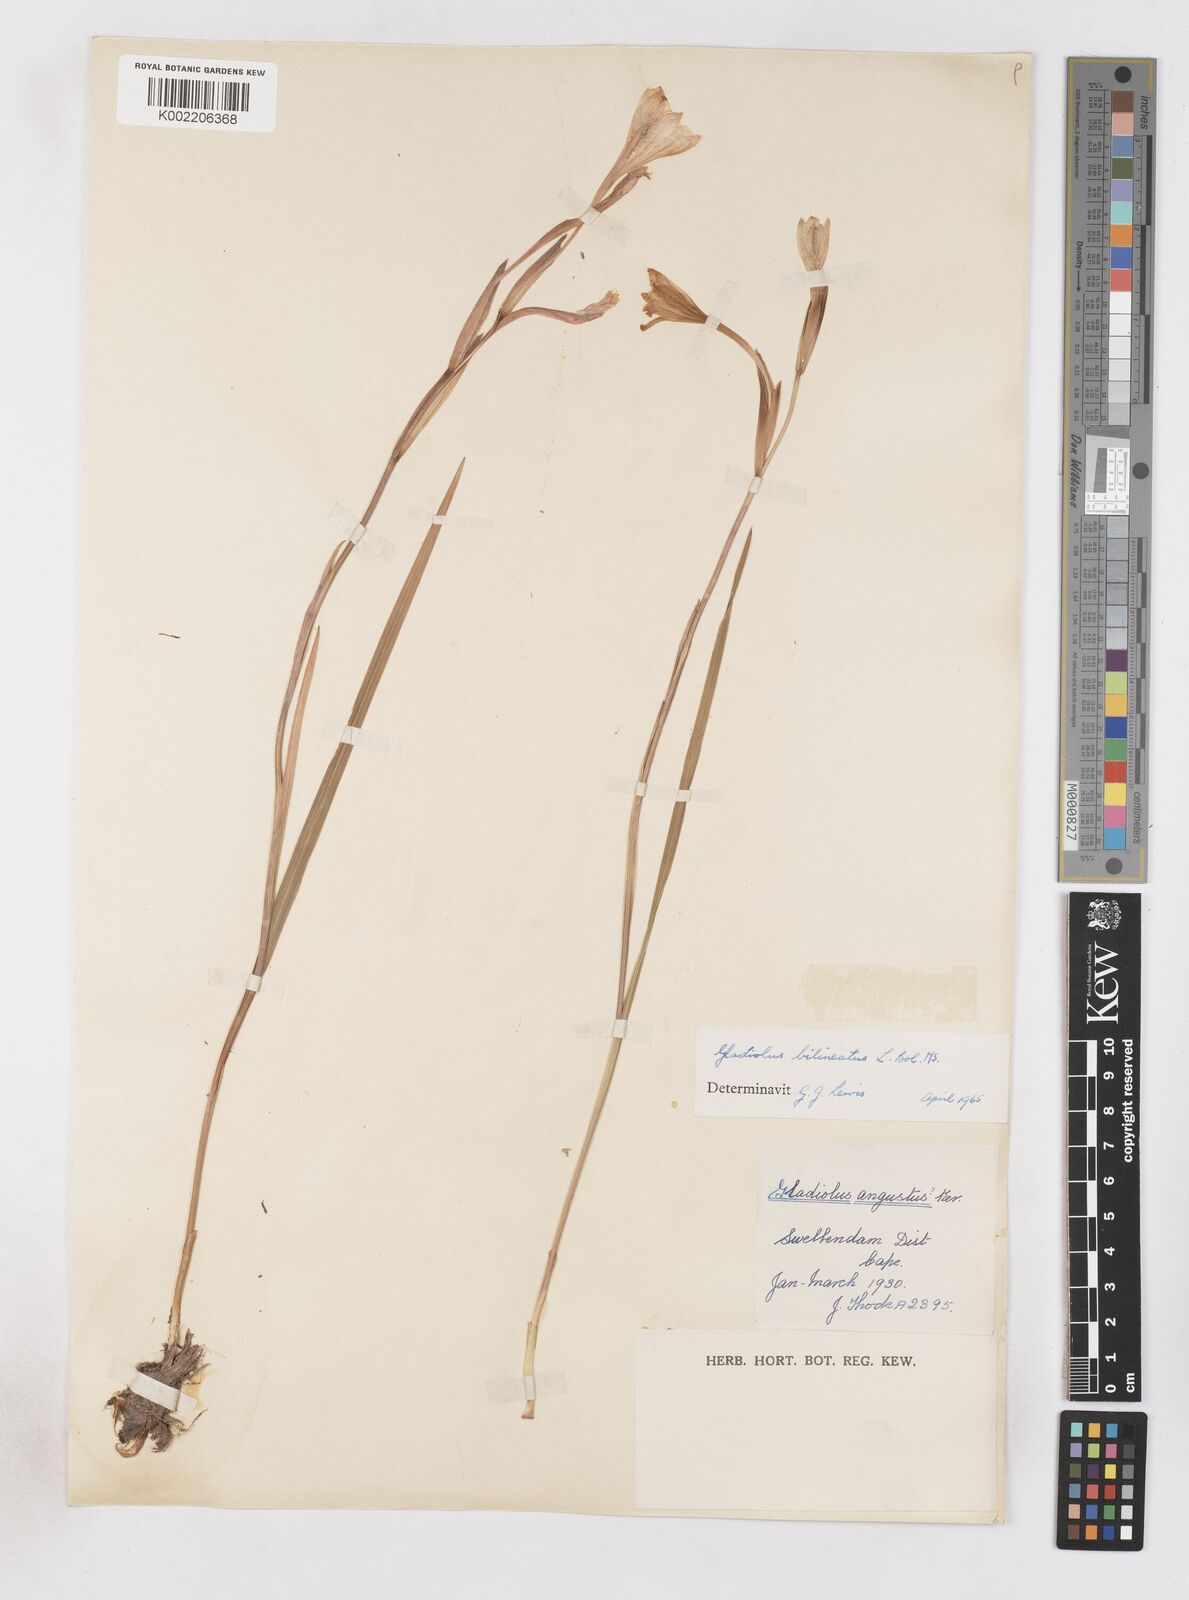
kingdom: Plantae
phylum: Tracheophyta
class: Liliopsida
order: Asparagales
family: Iridaceae
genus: Gladiolus
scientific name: Gladiolus bilineatus
